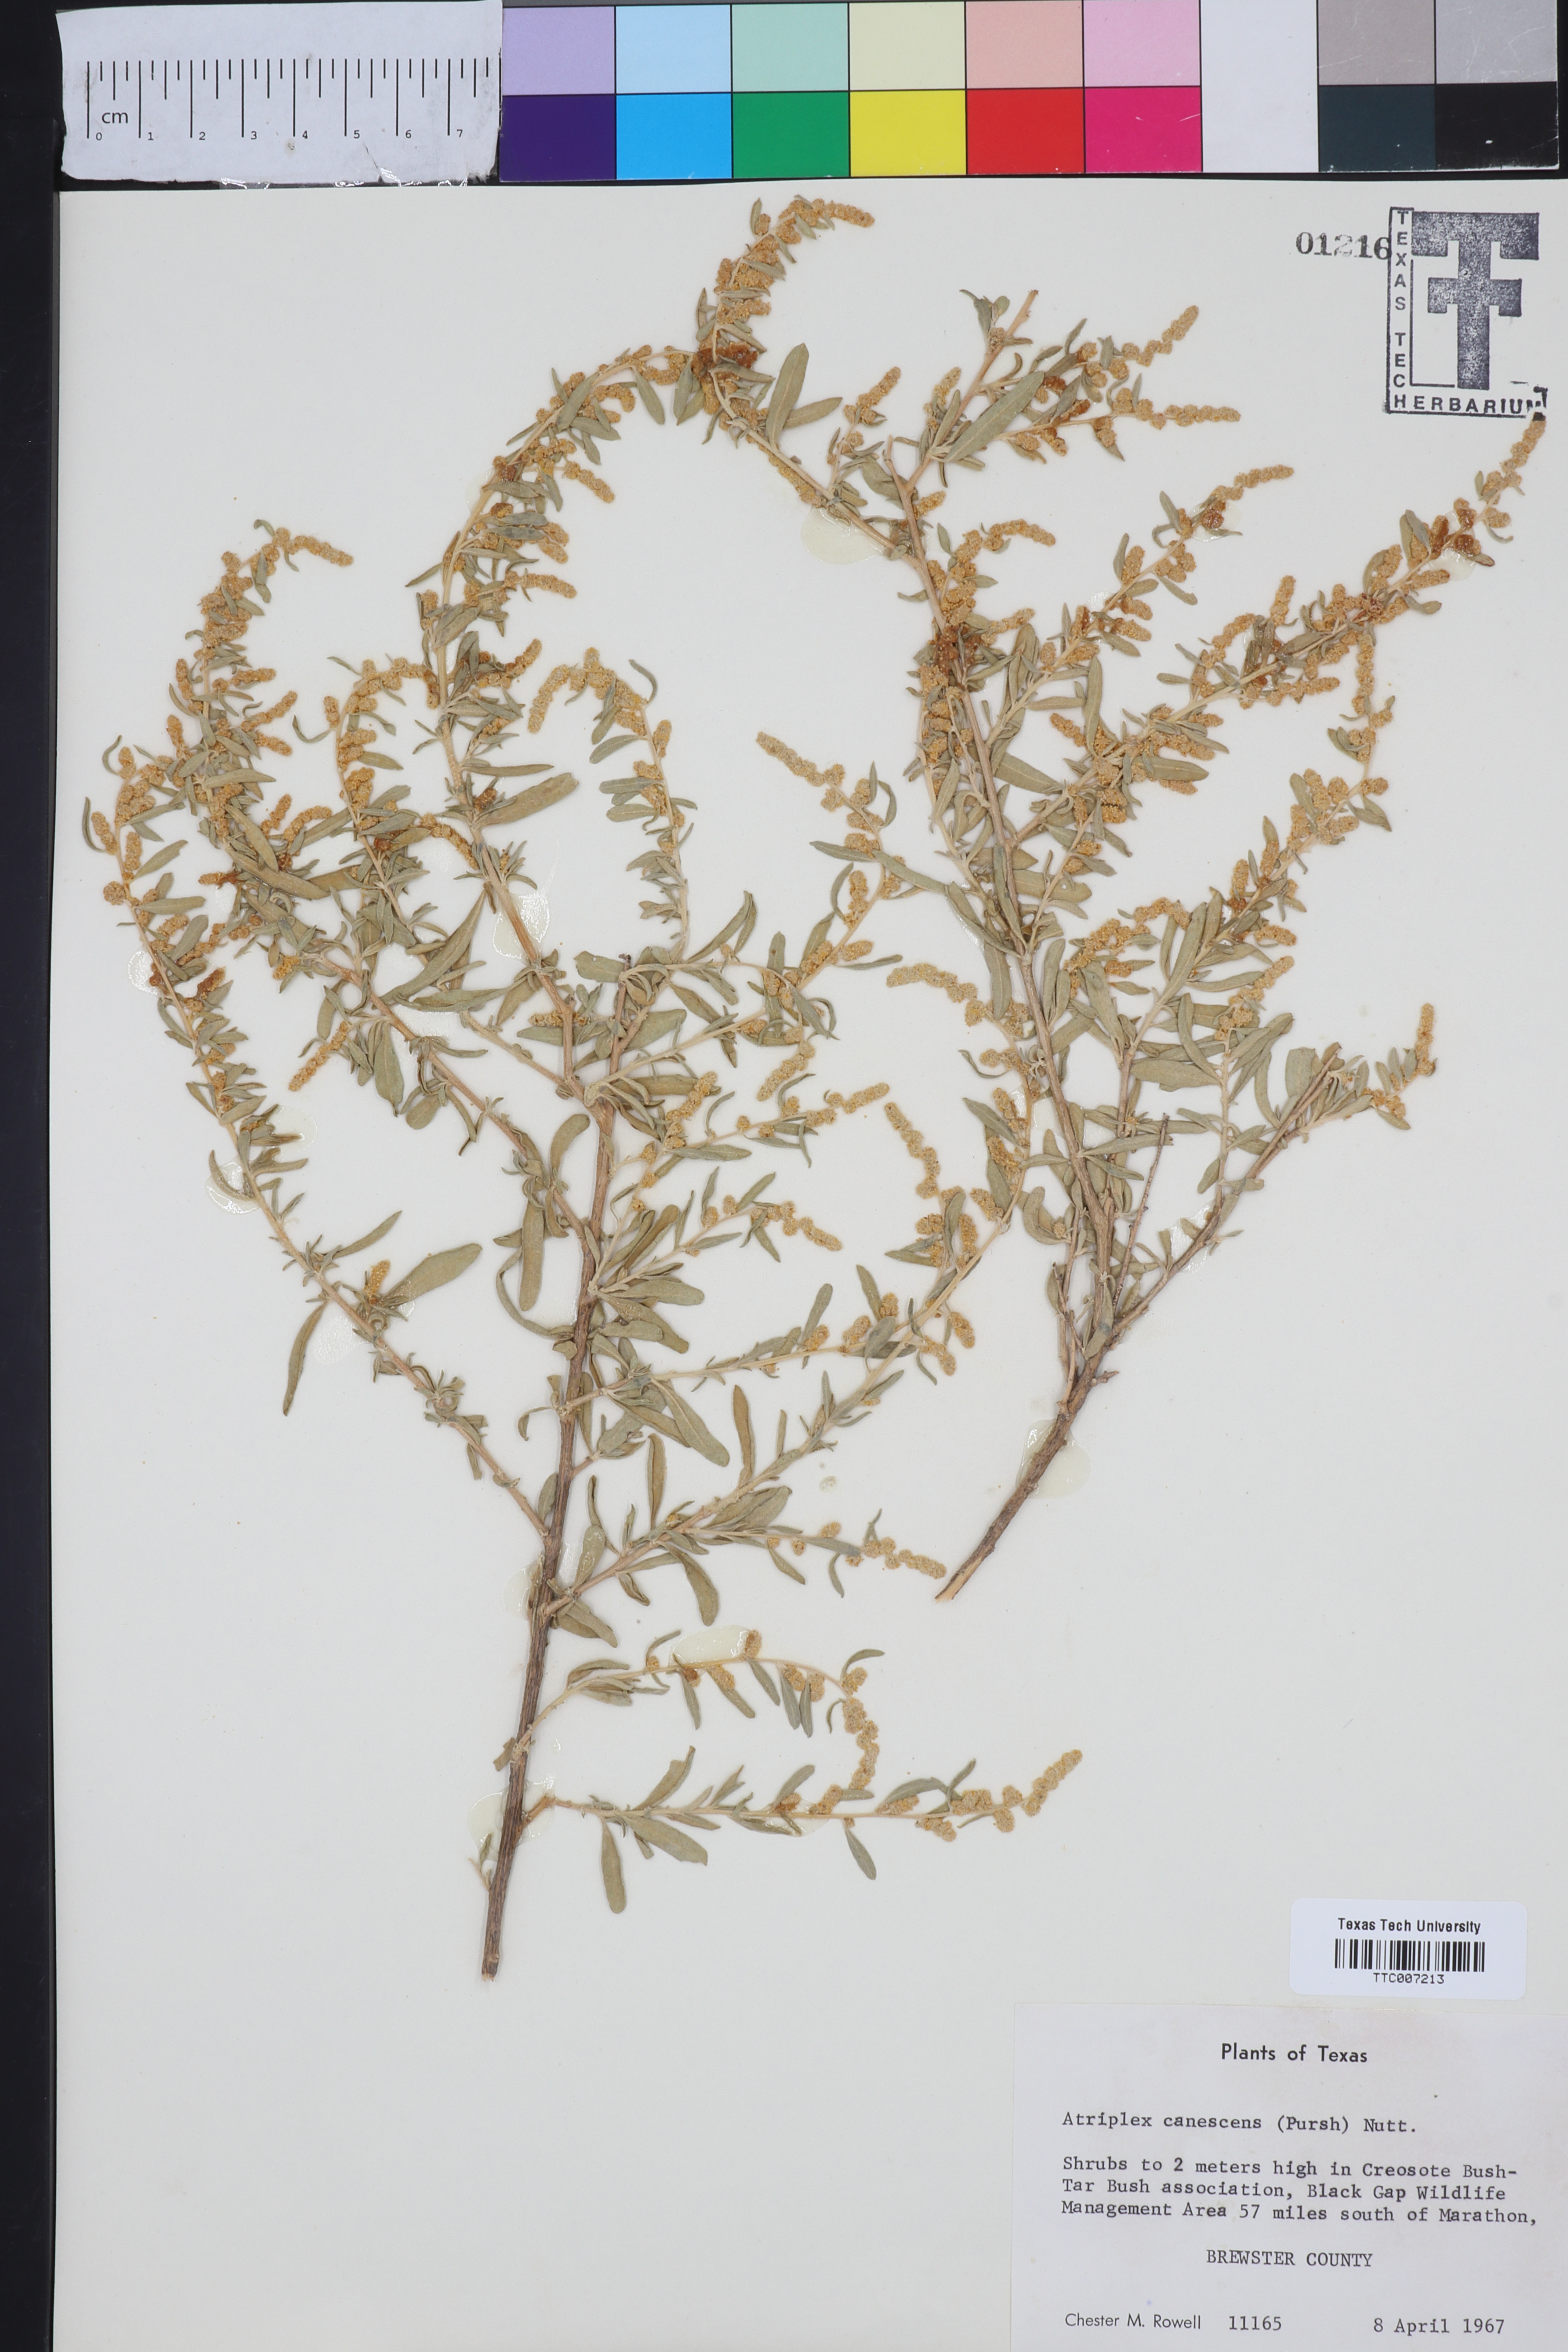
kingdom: Plantae
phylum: Tracheophyta
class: Magnoliopsida
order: Caryophyllales
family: Amaranthaceae
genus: Atriplex
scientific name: Atriplex canescens
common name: Four-wing saltbush
